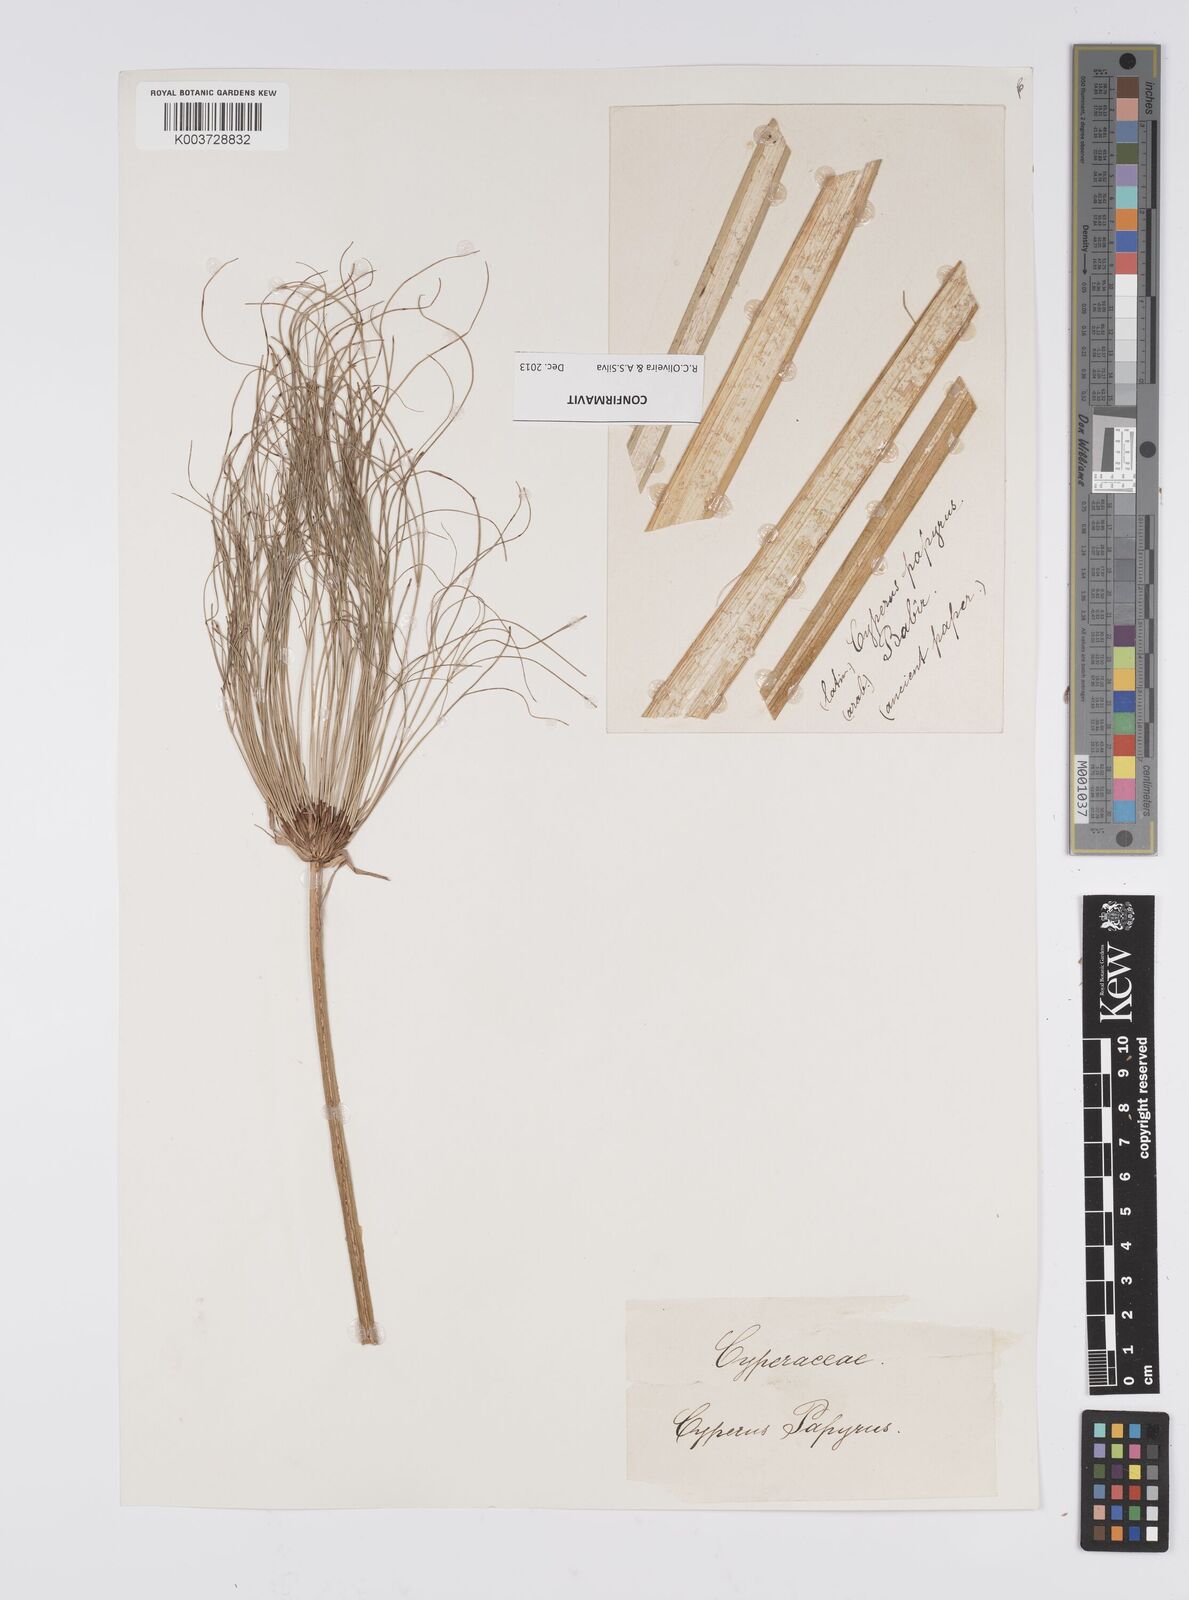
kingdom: Plantae
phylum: Tracheophyta
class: Liliopsida
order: Poales
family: Cyperaceae
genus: Cyperus
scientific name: Cyperus papyrus
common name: Papyrus
